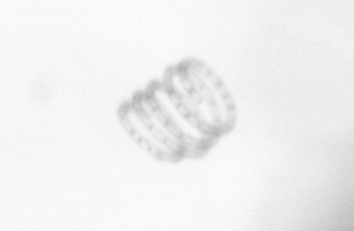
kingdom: Chromista
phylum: Ochrophyta
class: Bacillariophyceae
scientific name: Bacillariophyceae
